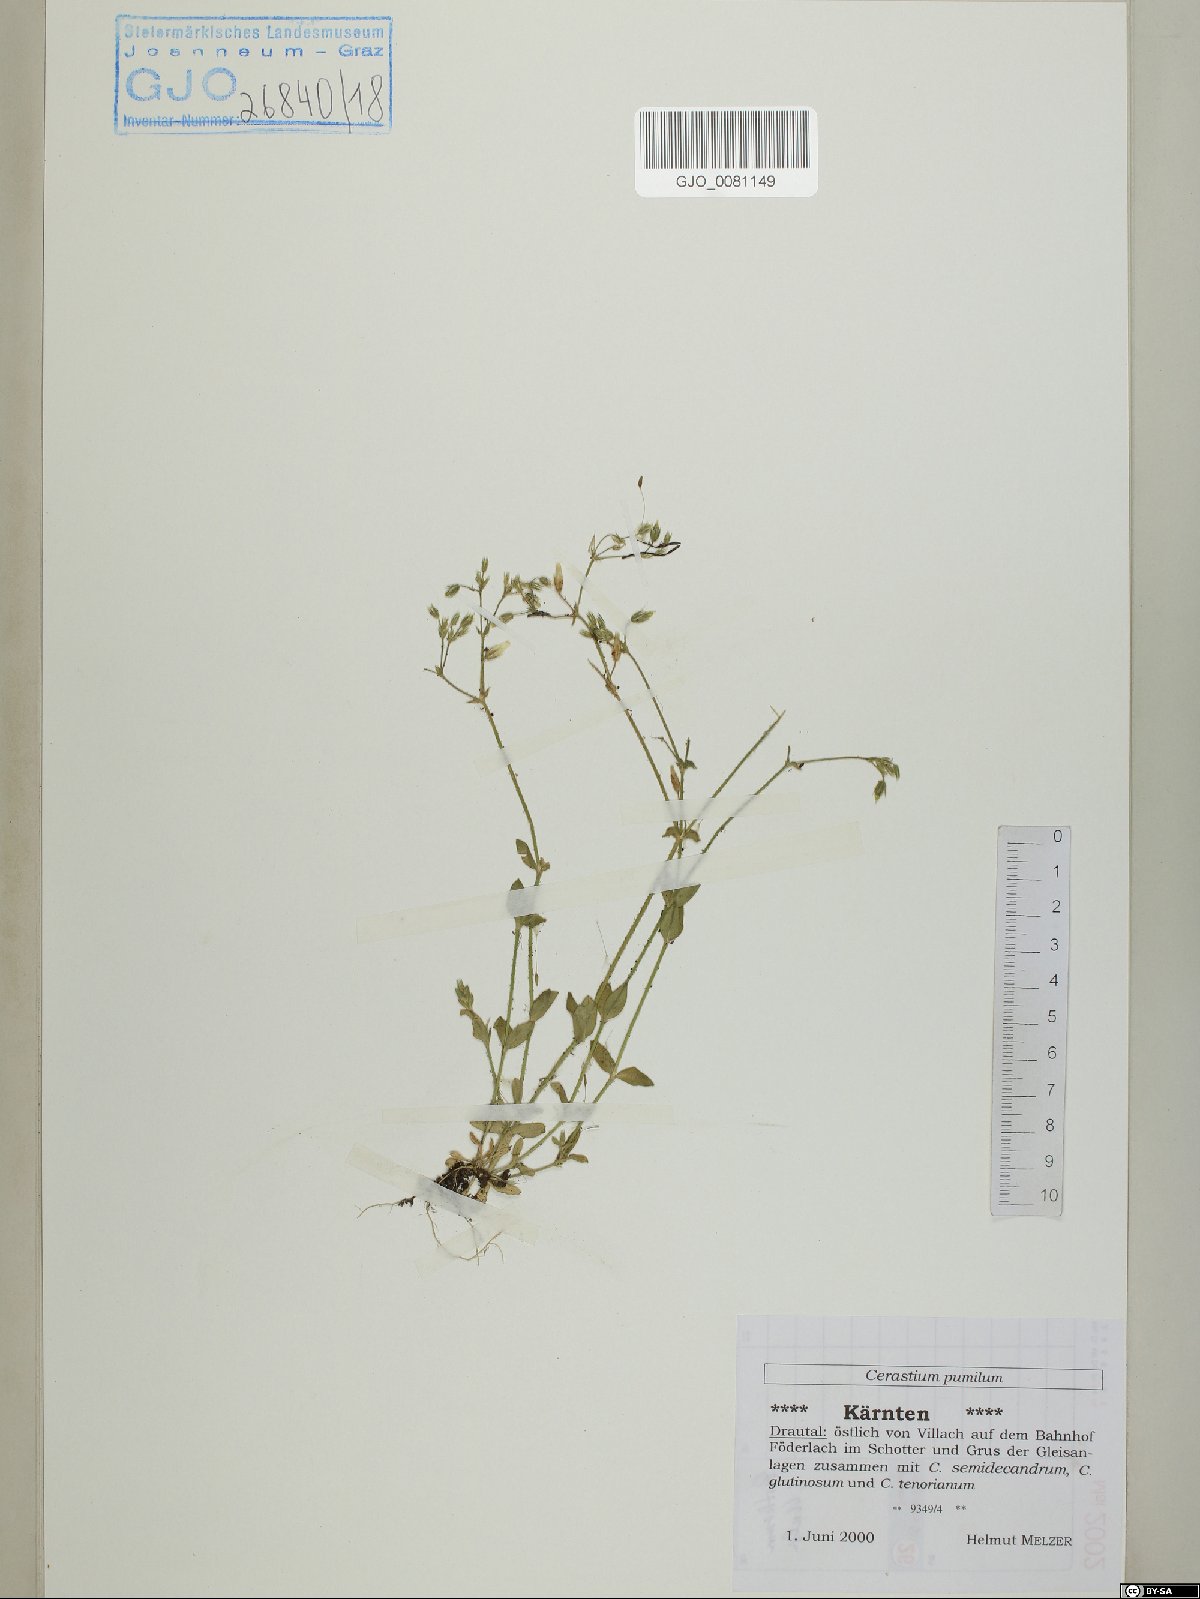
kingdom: Plantae
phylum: Tracheophyta
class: Magnoliopsida
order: Caryophyllales
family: Caryophyllaceae
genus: Cerastium
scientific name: Cerastium pumilum
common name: Dwarf mouse-ear
